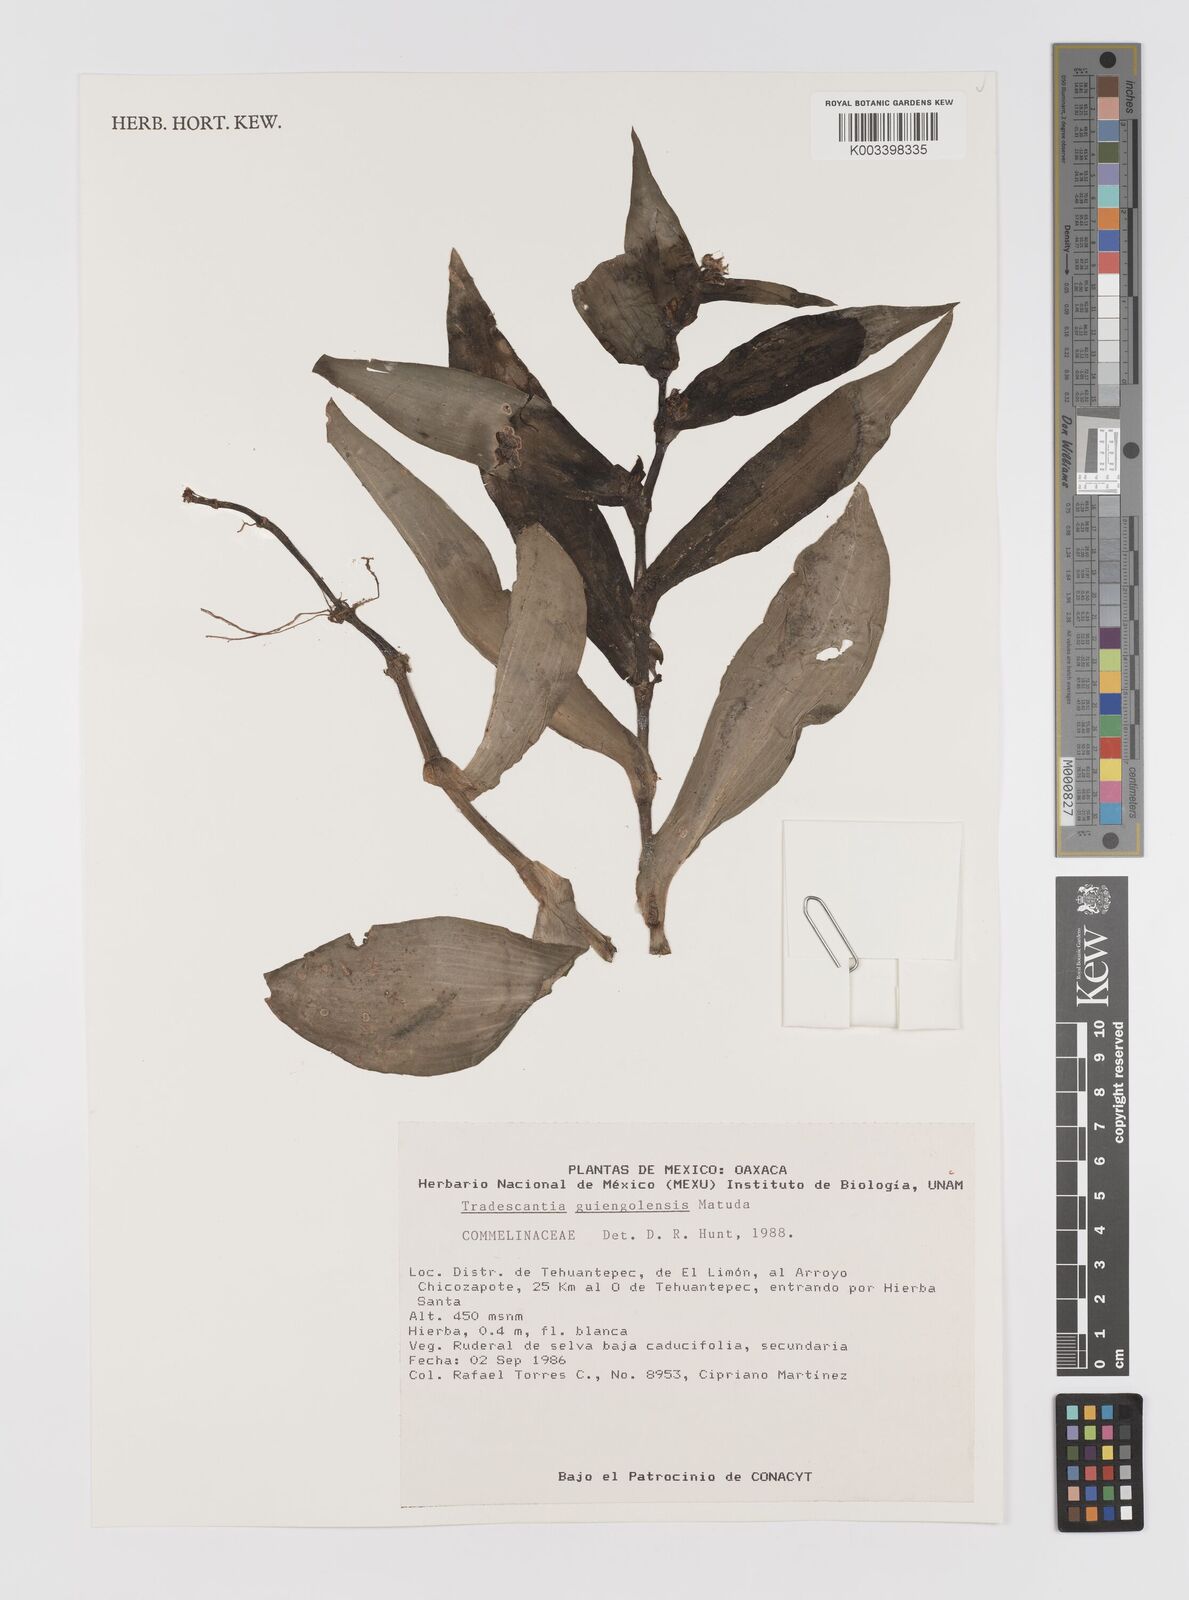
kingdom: Plantae
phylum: Tracheophyta
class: Liliopsida
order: Commelinales
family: Commelinaceae
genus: Tradescantia
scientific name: Tradescantia guiengolensis
